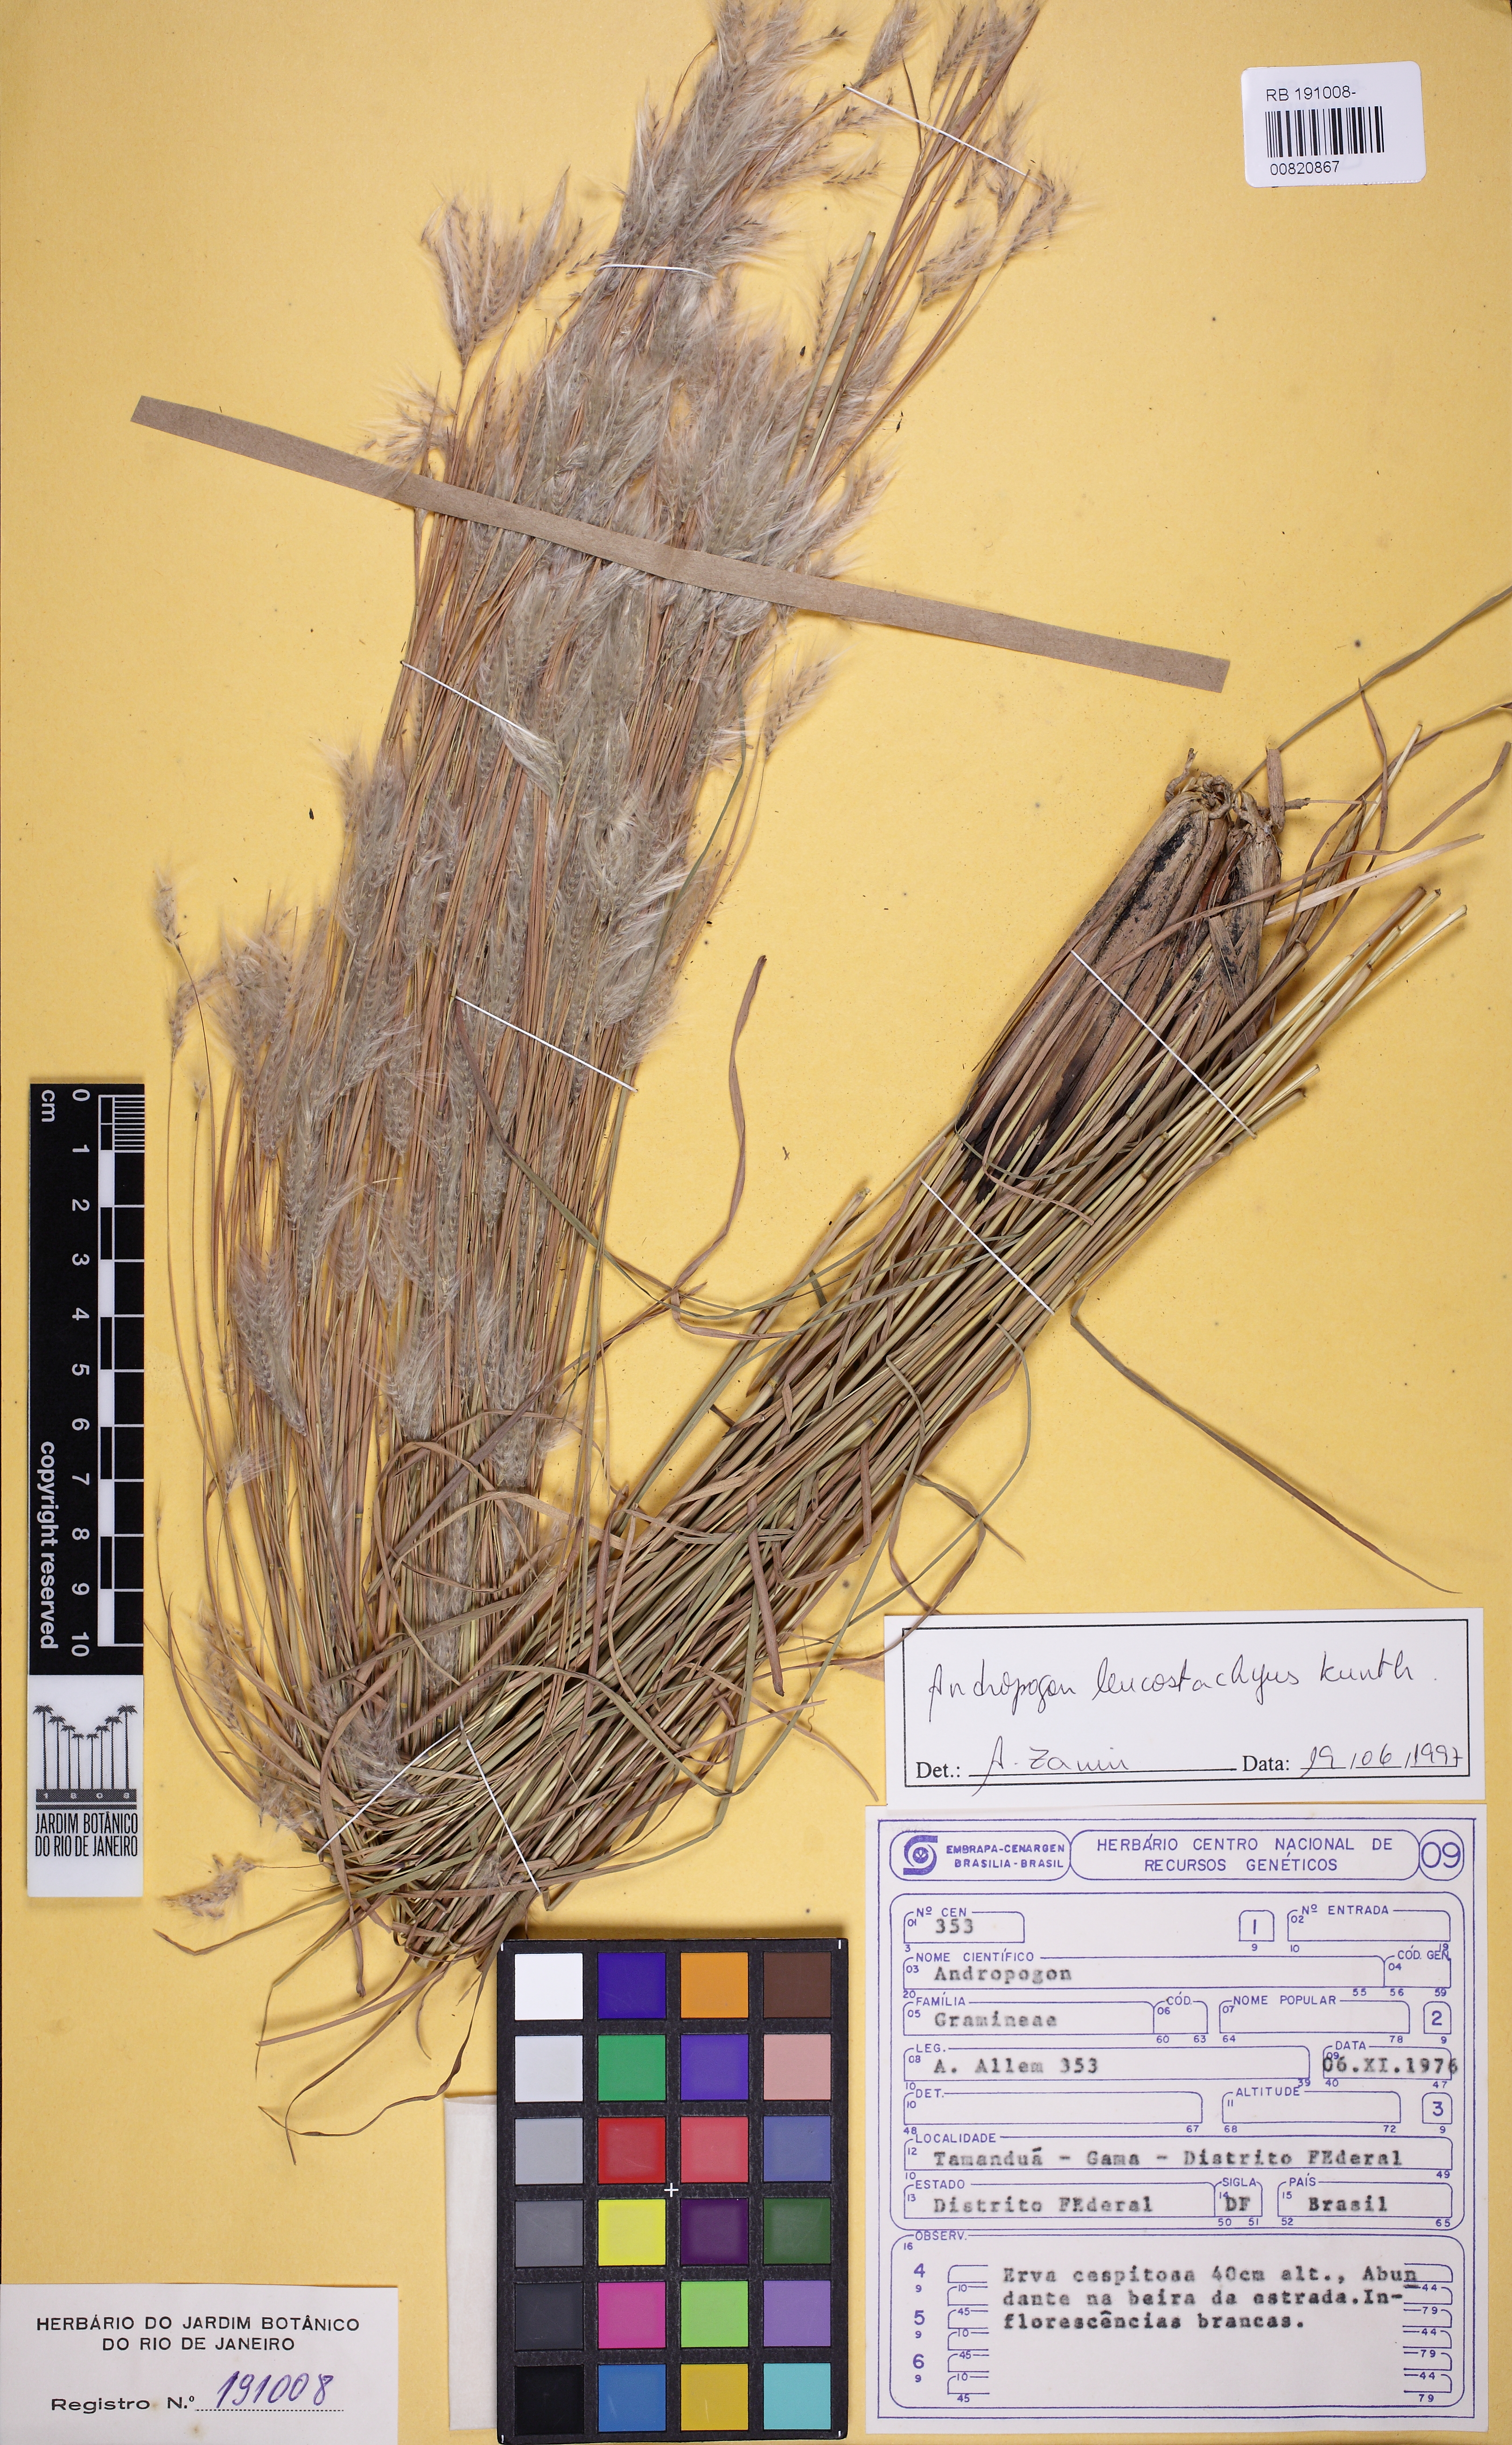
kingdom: Plantae
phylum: Tracheophyta
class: Liliopsida
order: Poales
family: Poaceae
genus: Andropogon
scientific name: Andropogon leucostachyus
